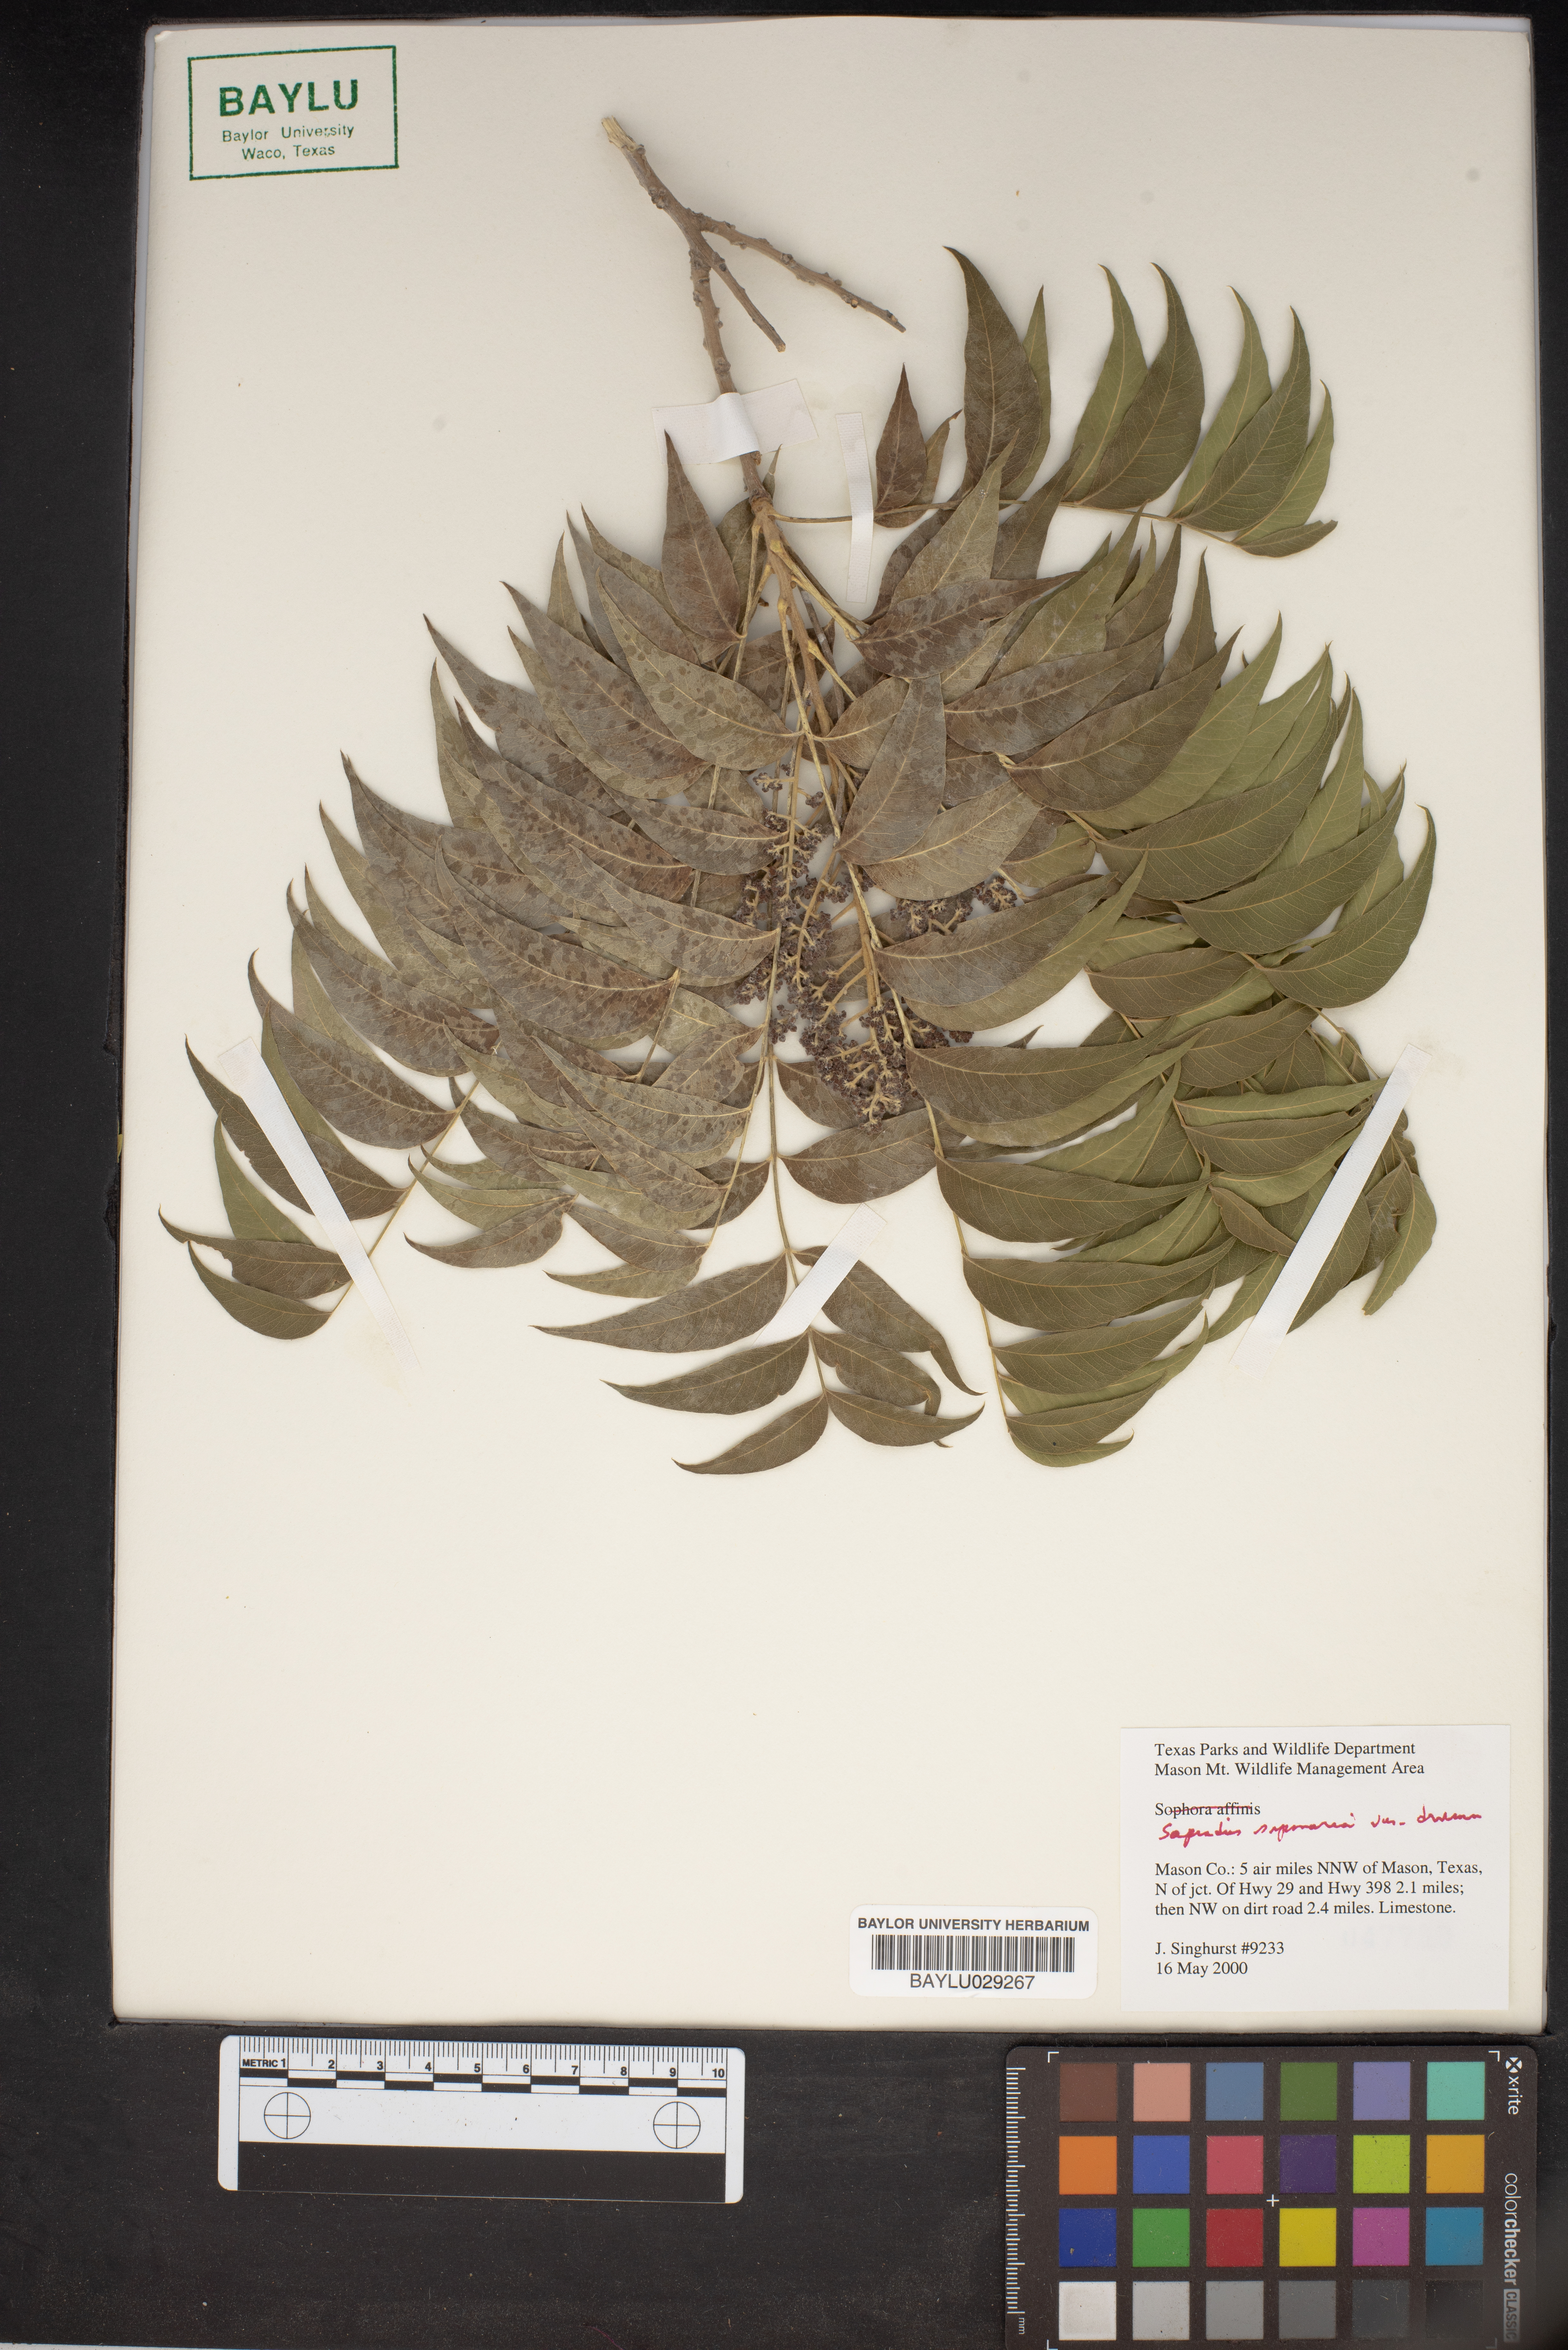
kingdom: Plantae
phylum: Tracheophyta
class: Magnoliopsida
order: Sapindales
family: Sapindaceae
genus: Sapindus
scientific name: Sapindus drummondii
